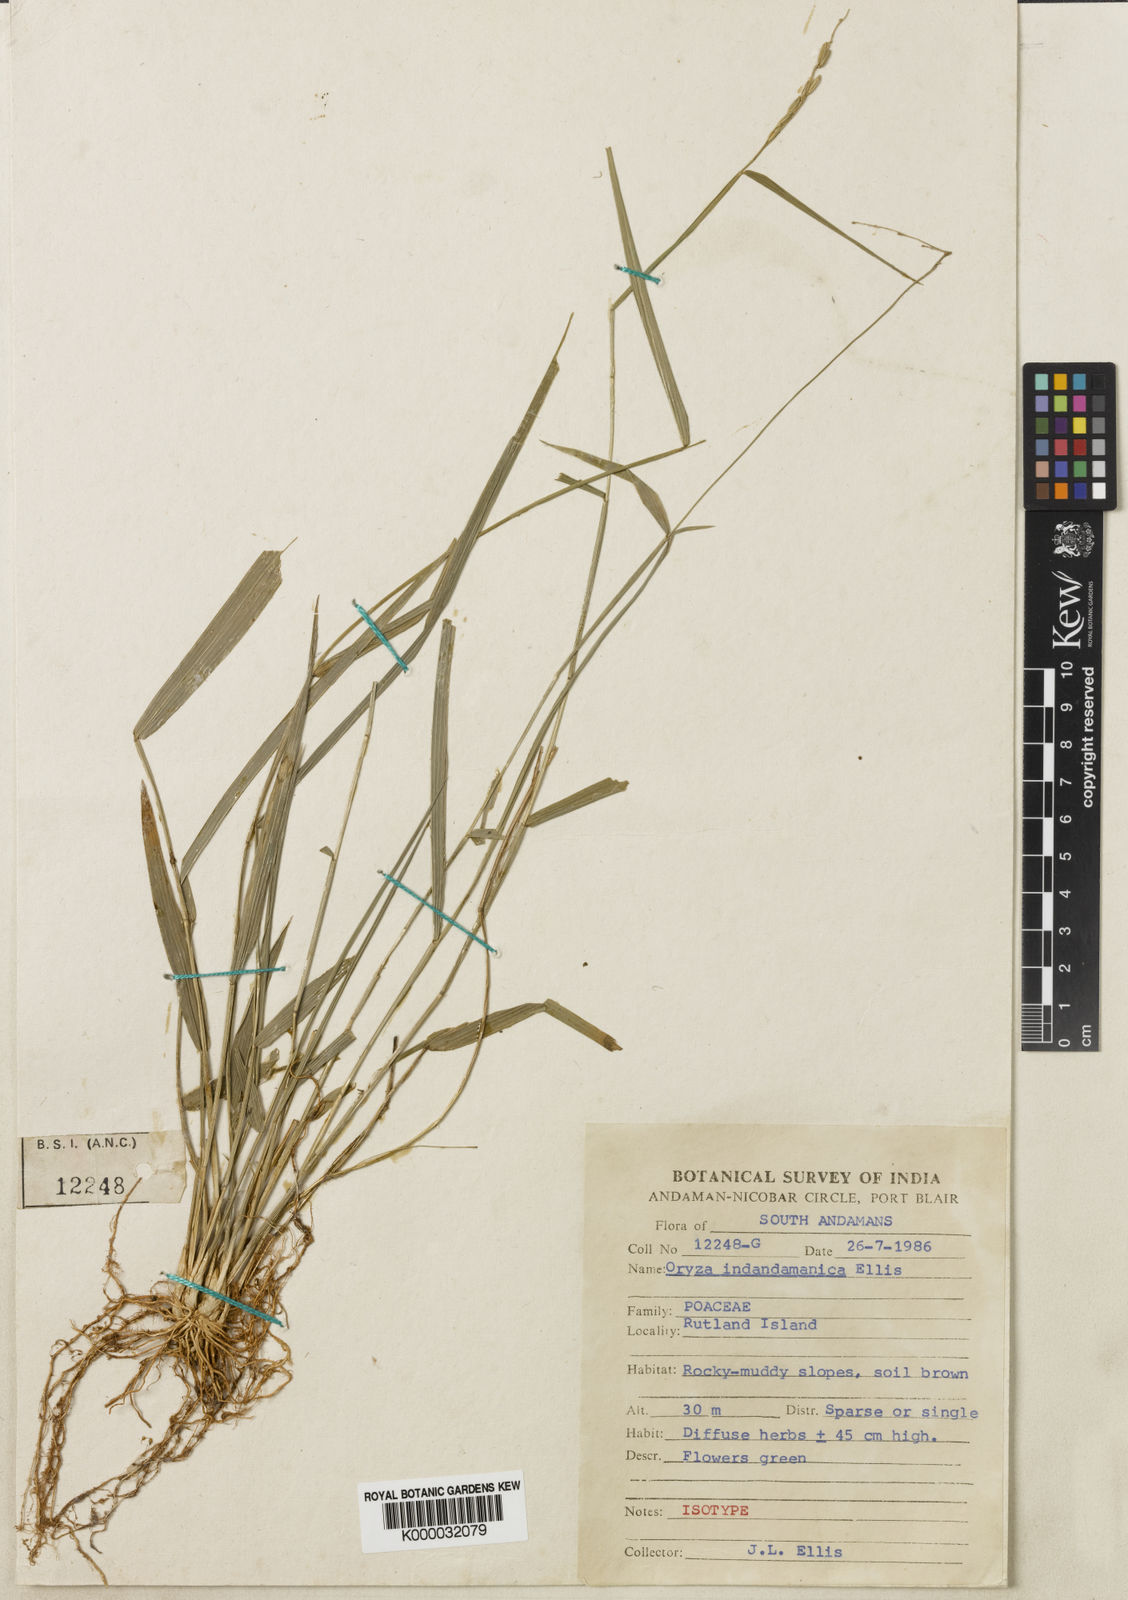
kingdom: Plantae
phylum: Tracheophyta
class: Liliopsida
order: Poales
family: Poaceae
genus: Oryza
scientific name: Oryza meyeriana
